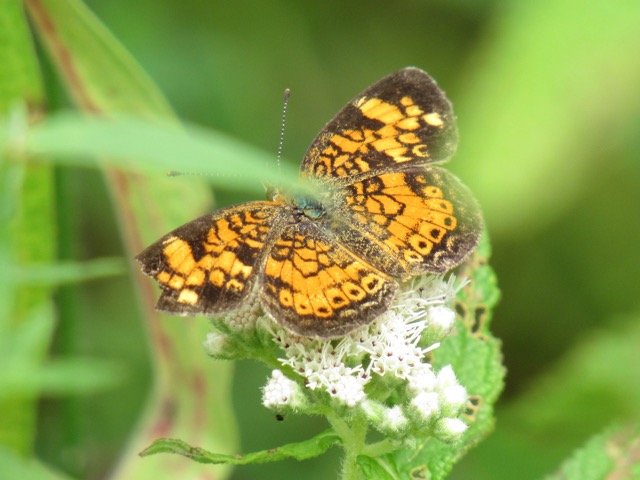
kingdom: Animalia
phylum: Arthropoda
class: Insecta
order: Lepidoptera
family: Nymphalidae
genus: Phyciodes
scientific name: Phyciodes tharos
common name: Pearl Crescent
